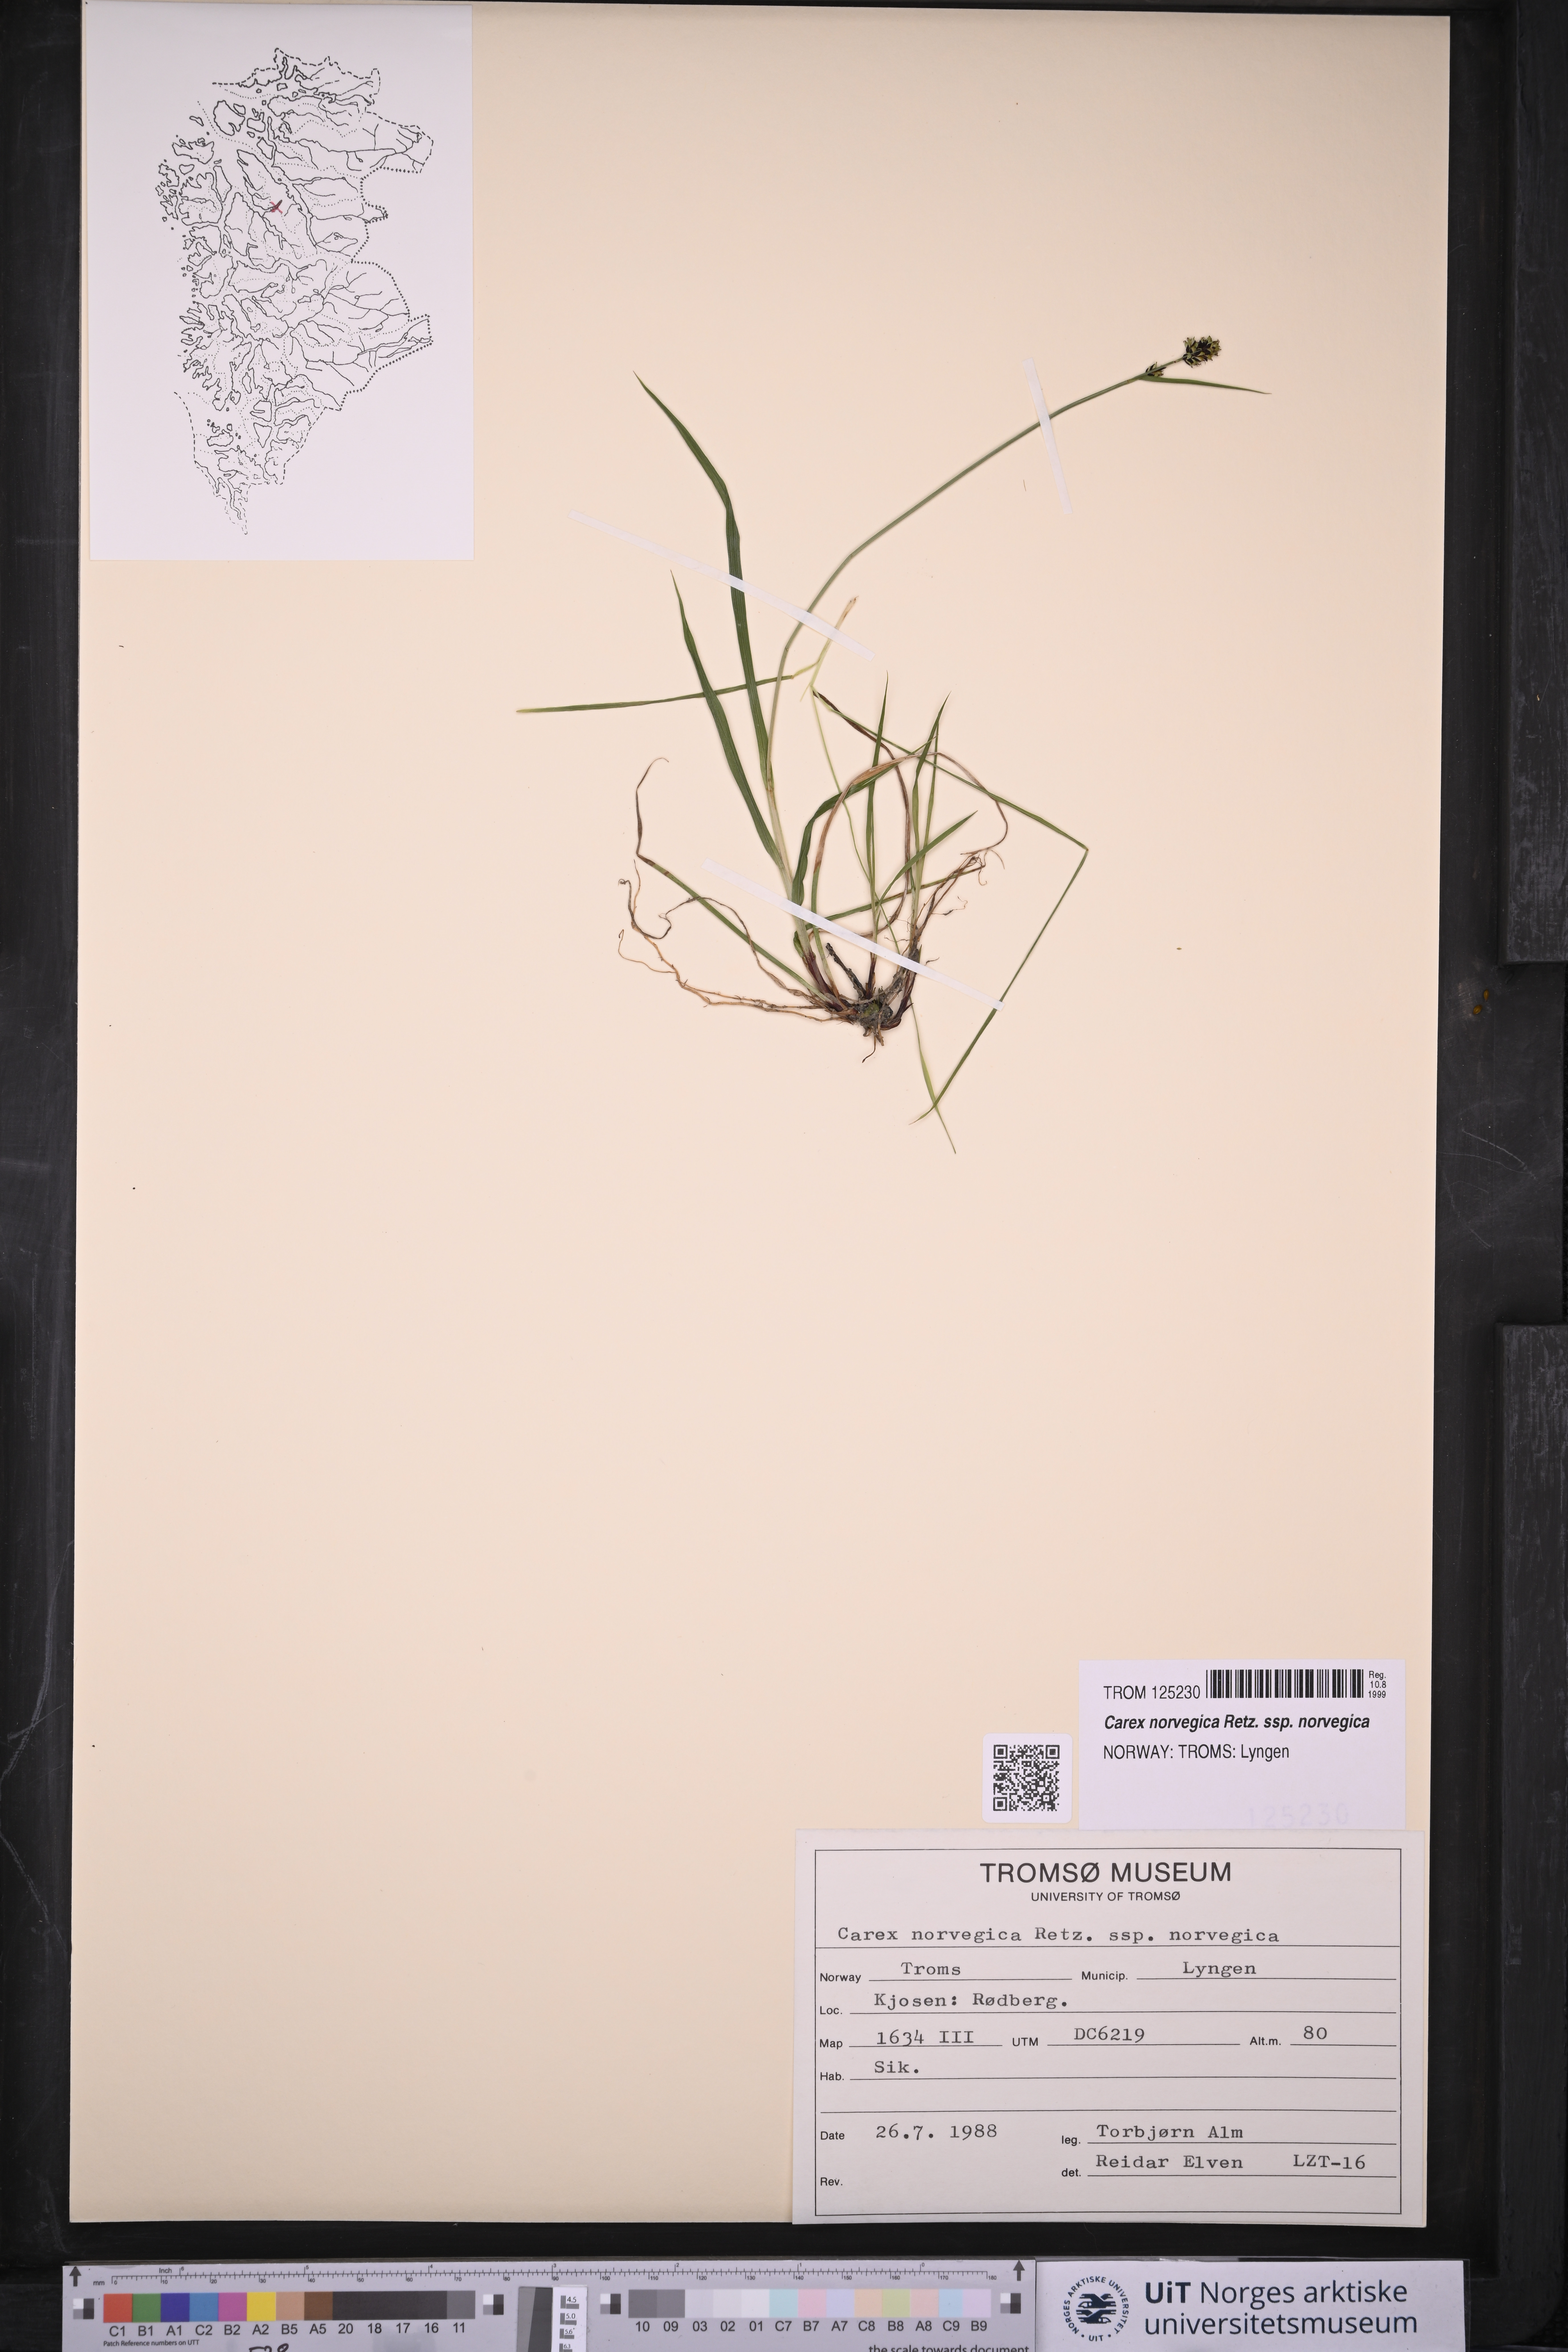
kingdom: Plantae
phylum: Tracheophyta
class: Liliopsida
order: Poales
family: Cyperaceae
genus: Carex
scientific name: Carex norvegica
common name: Close-headed alpine-sedge
